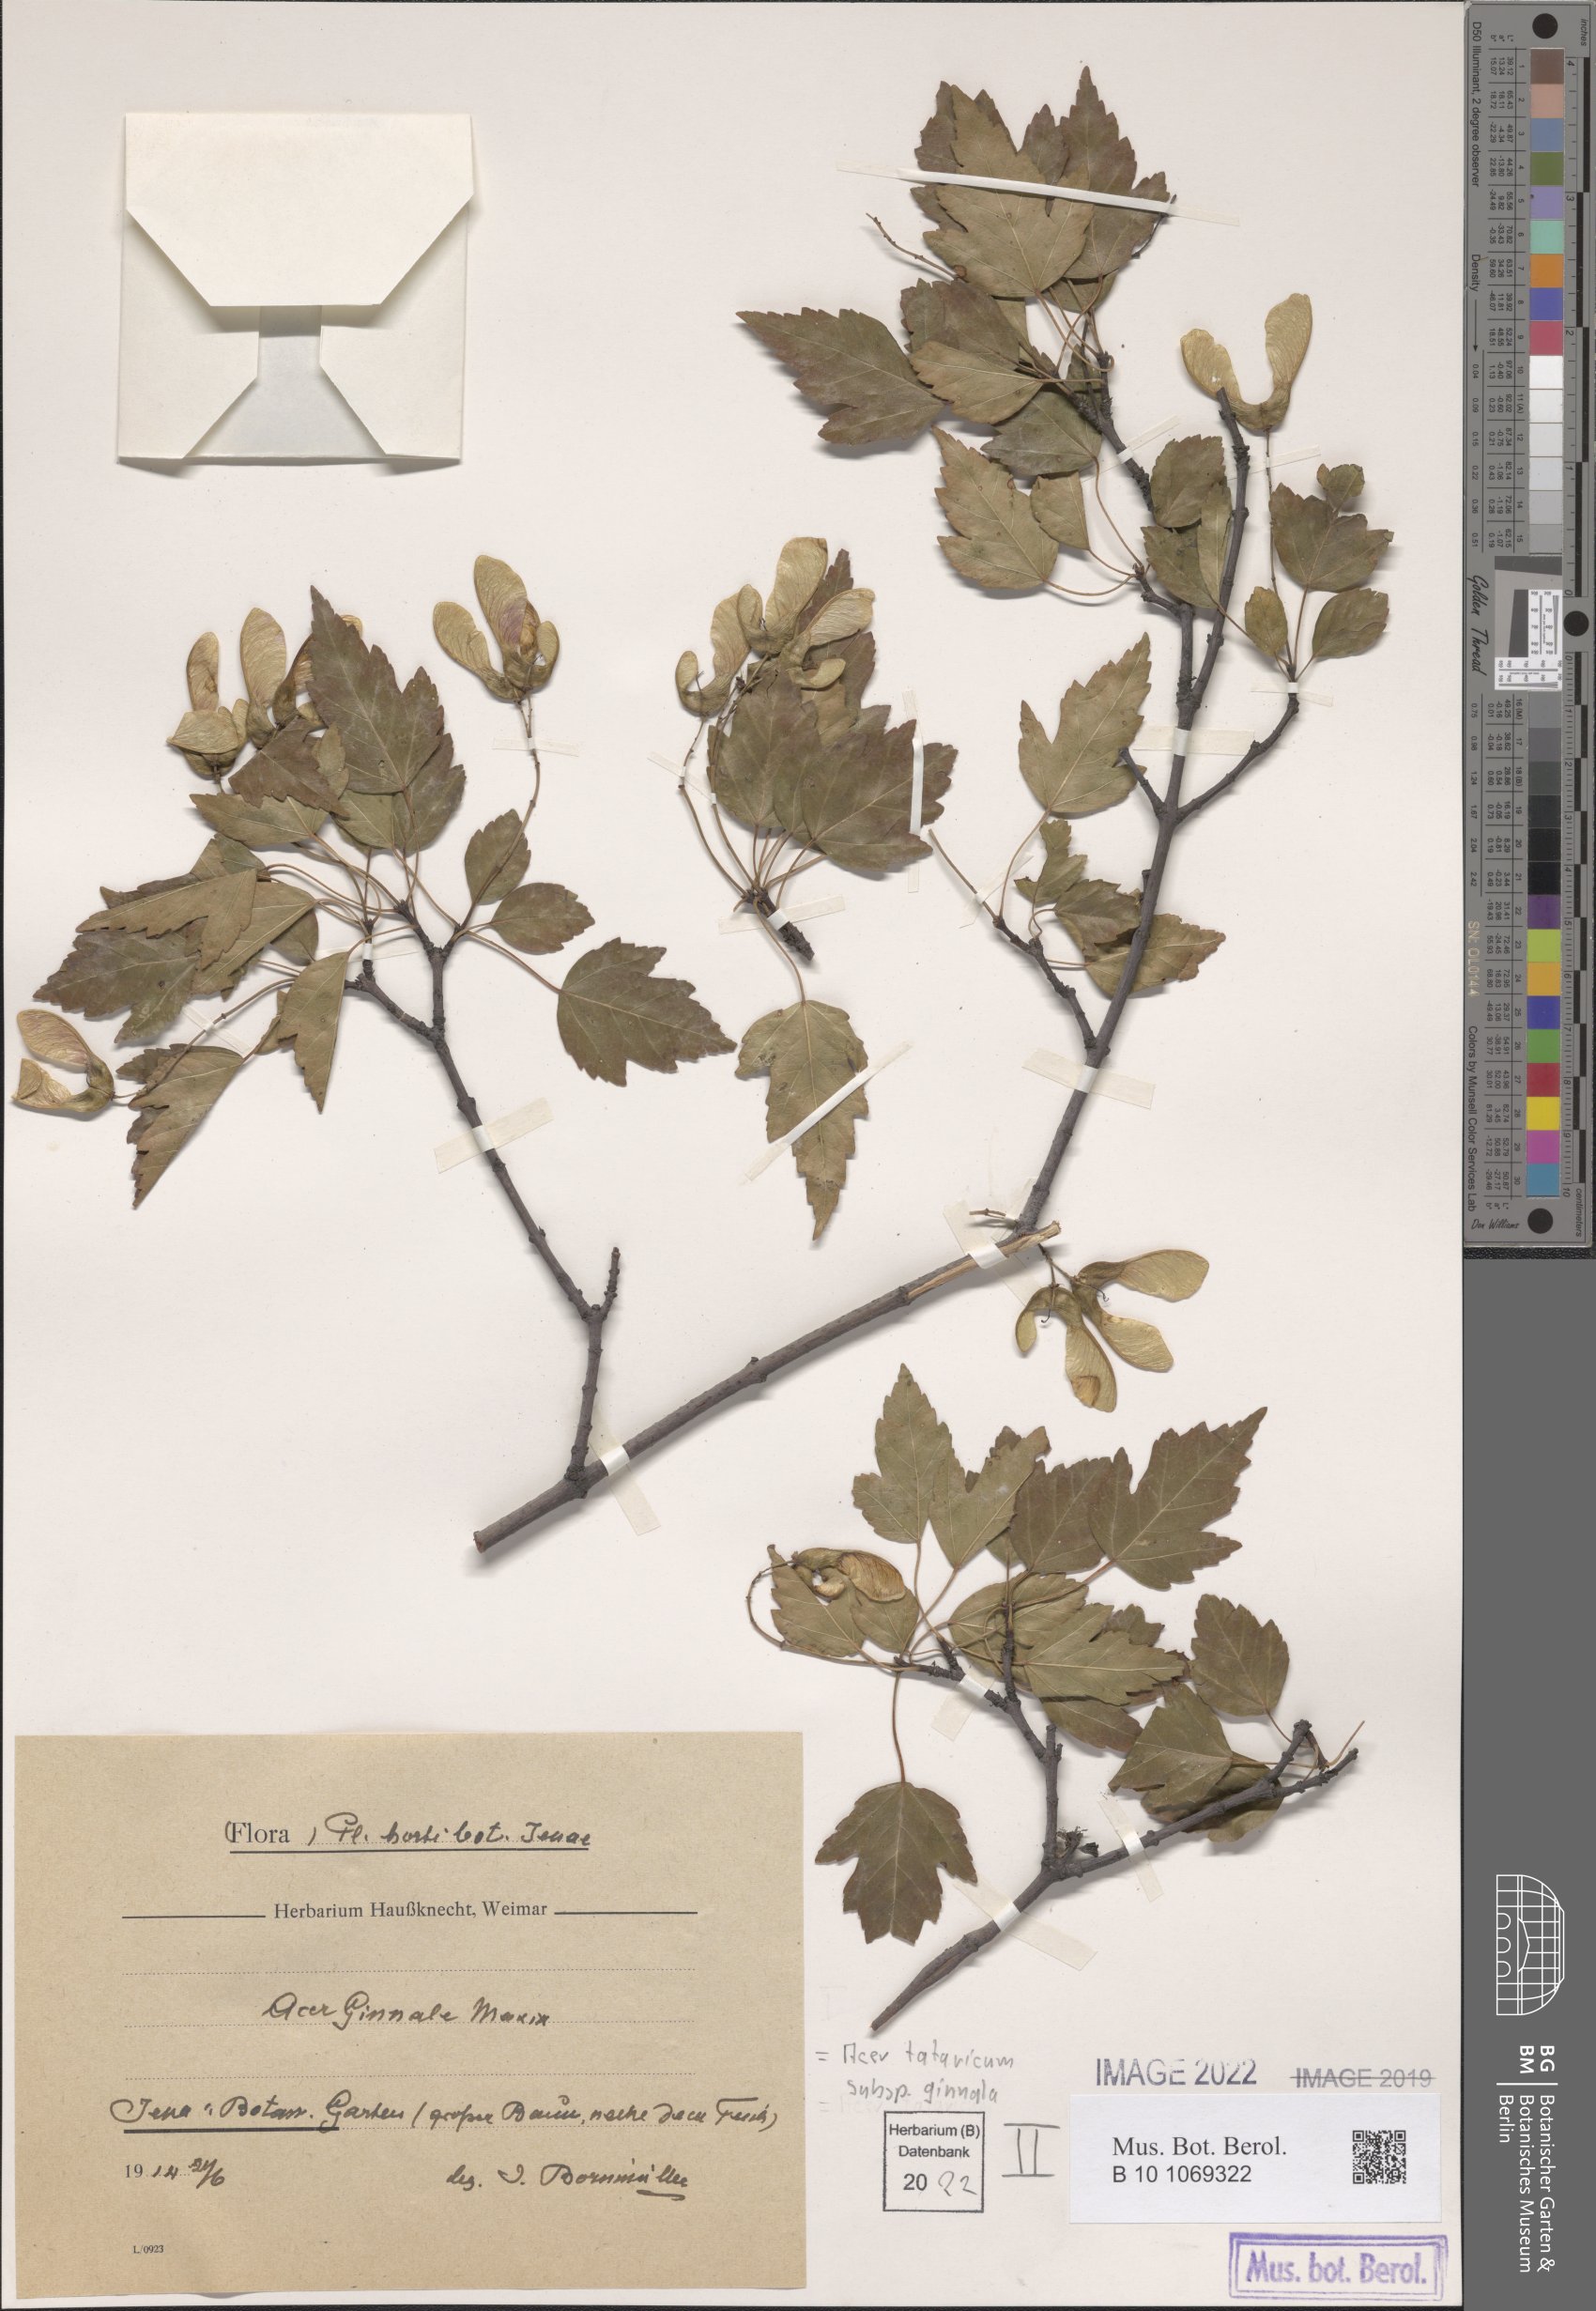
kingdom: Plantae
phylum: Tracheophyta
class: Magnoliopsida
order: Sapindales
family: Sapindaceae
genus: Acer
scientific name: Acer tataricum
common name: Tartar maple
